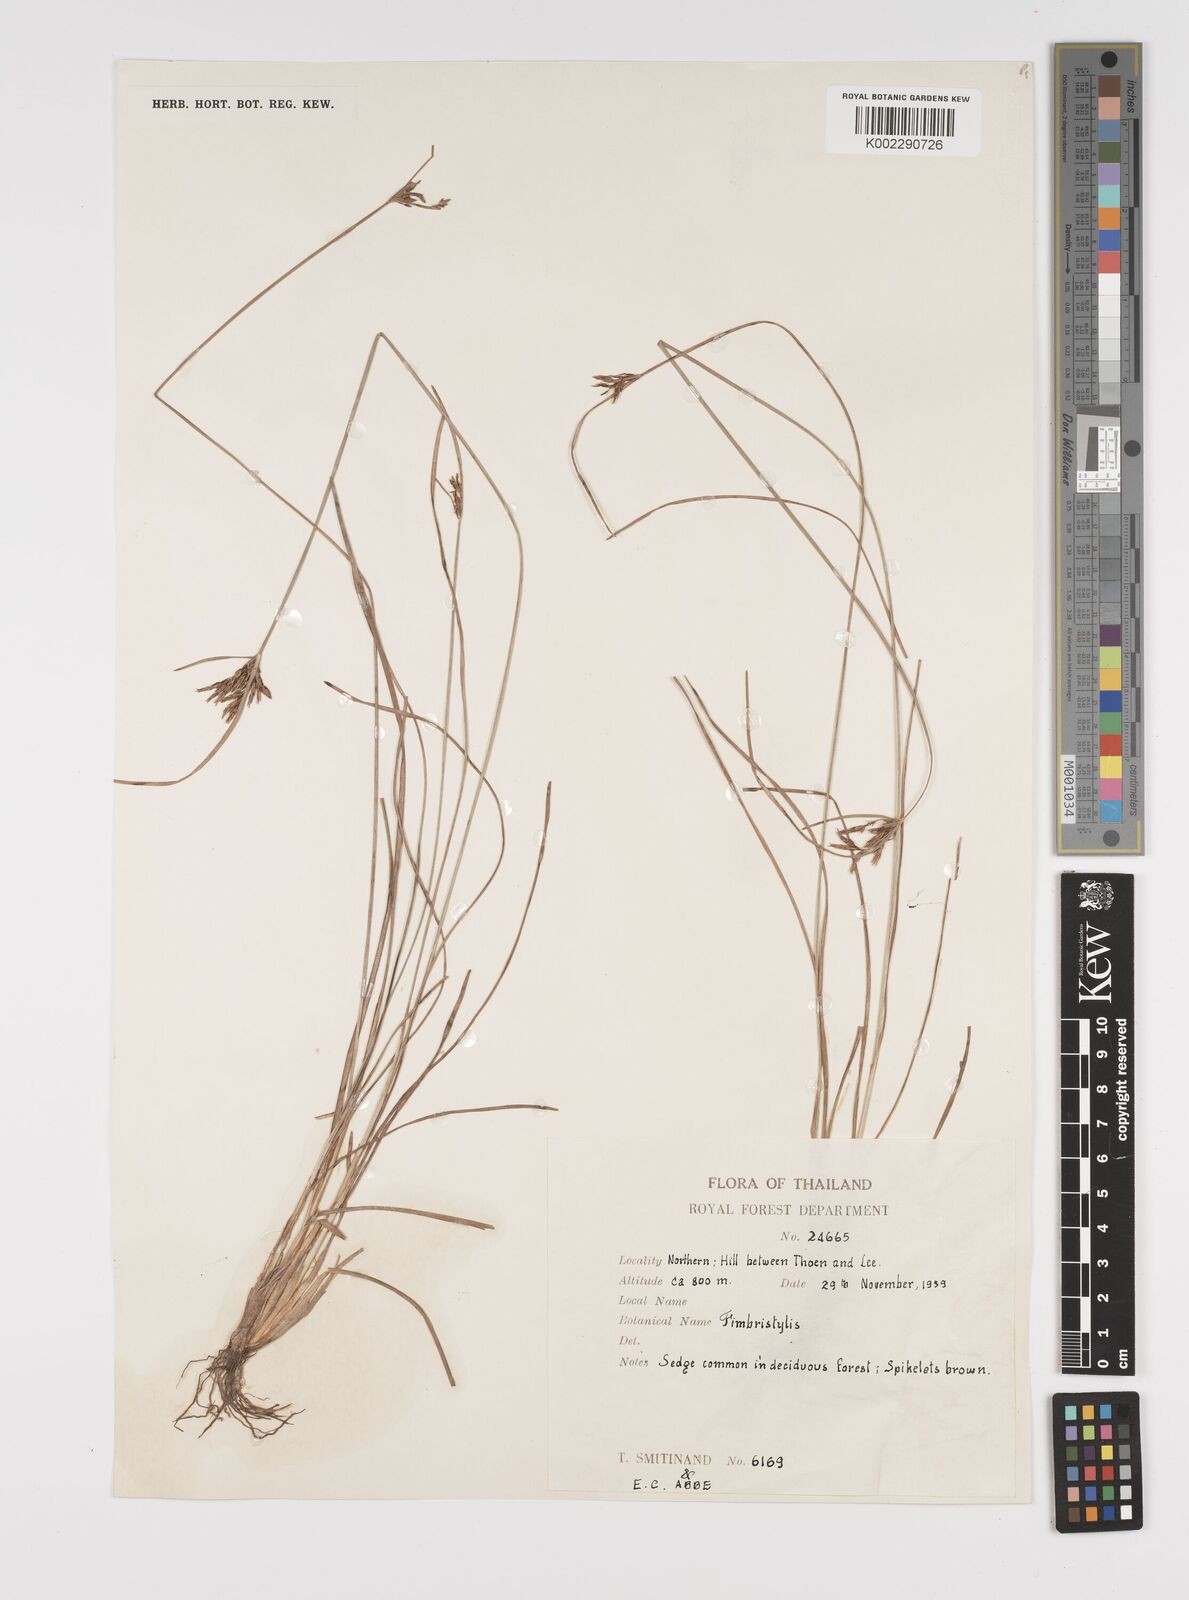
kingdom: Plantae
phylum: Tracheophyta
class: Liliopsida
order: Poales
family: Cyperaceae
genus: Fimbristylis
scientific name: Fimbristylis
